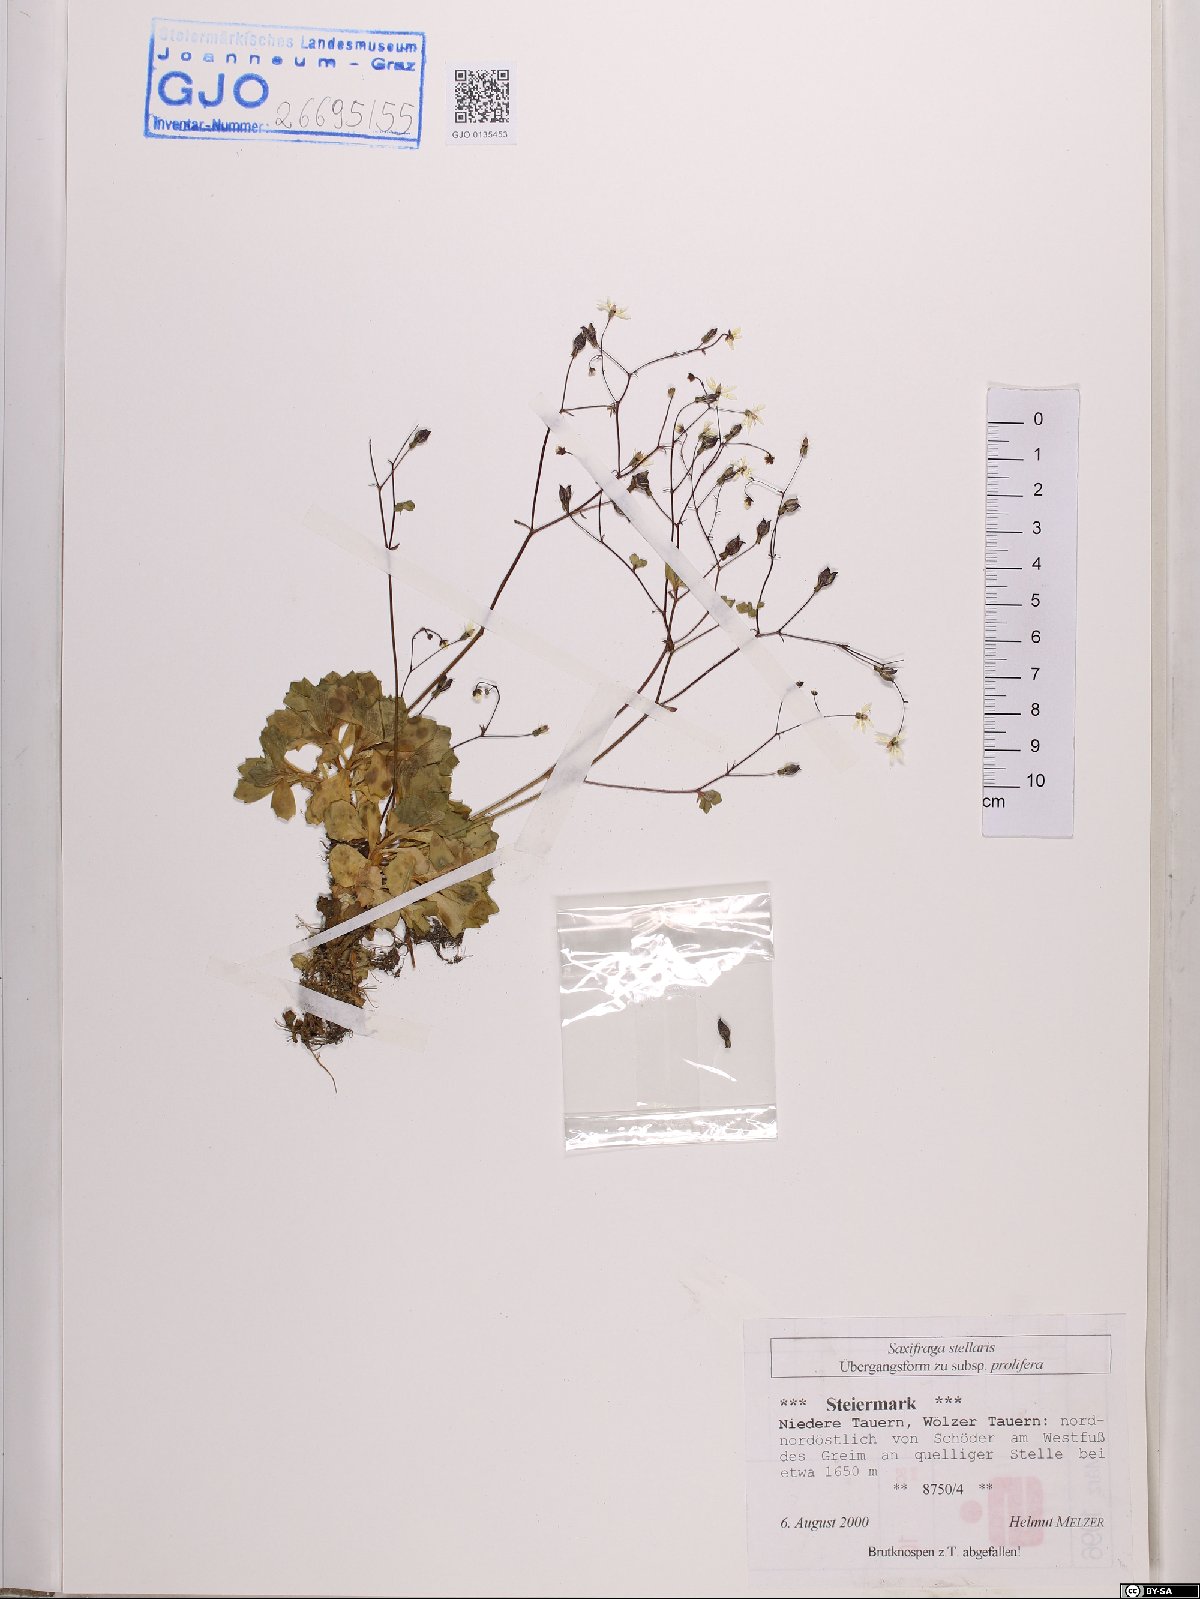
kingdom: Plantae
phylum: Tracheophyta
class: Magnoliopsida
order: Saxifragales
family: Saxifragaceae
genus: Micranthes
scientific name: Micranthes stellaris
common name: Starry saxifrage
